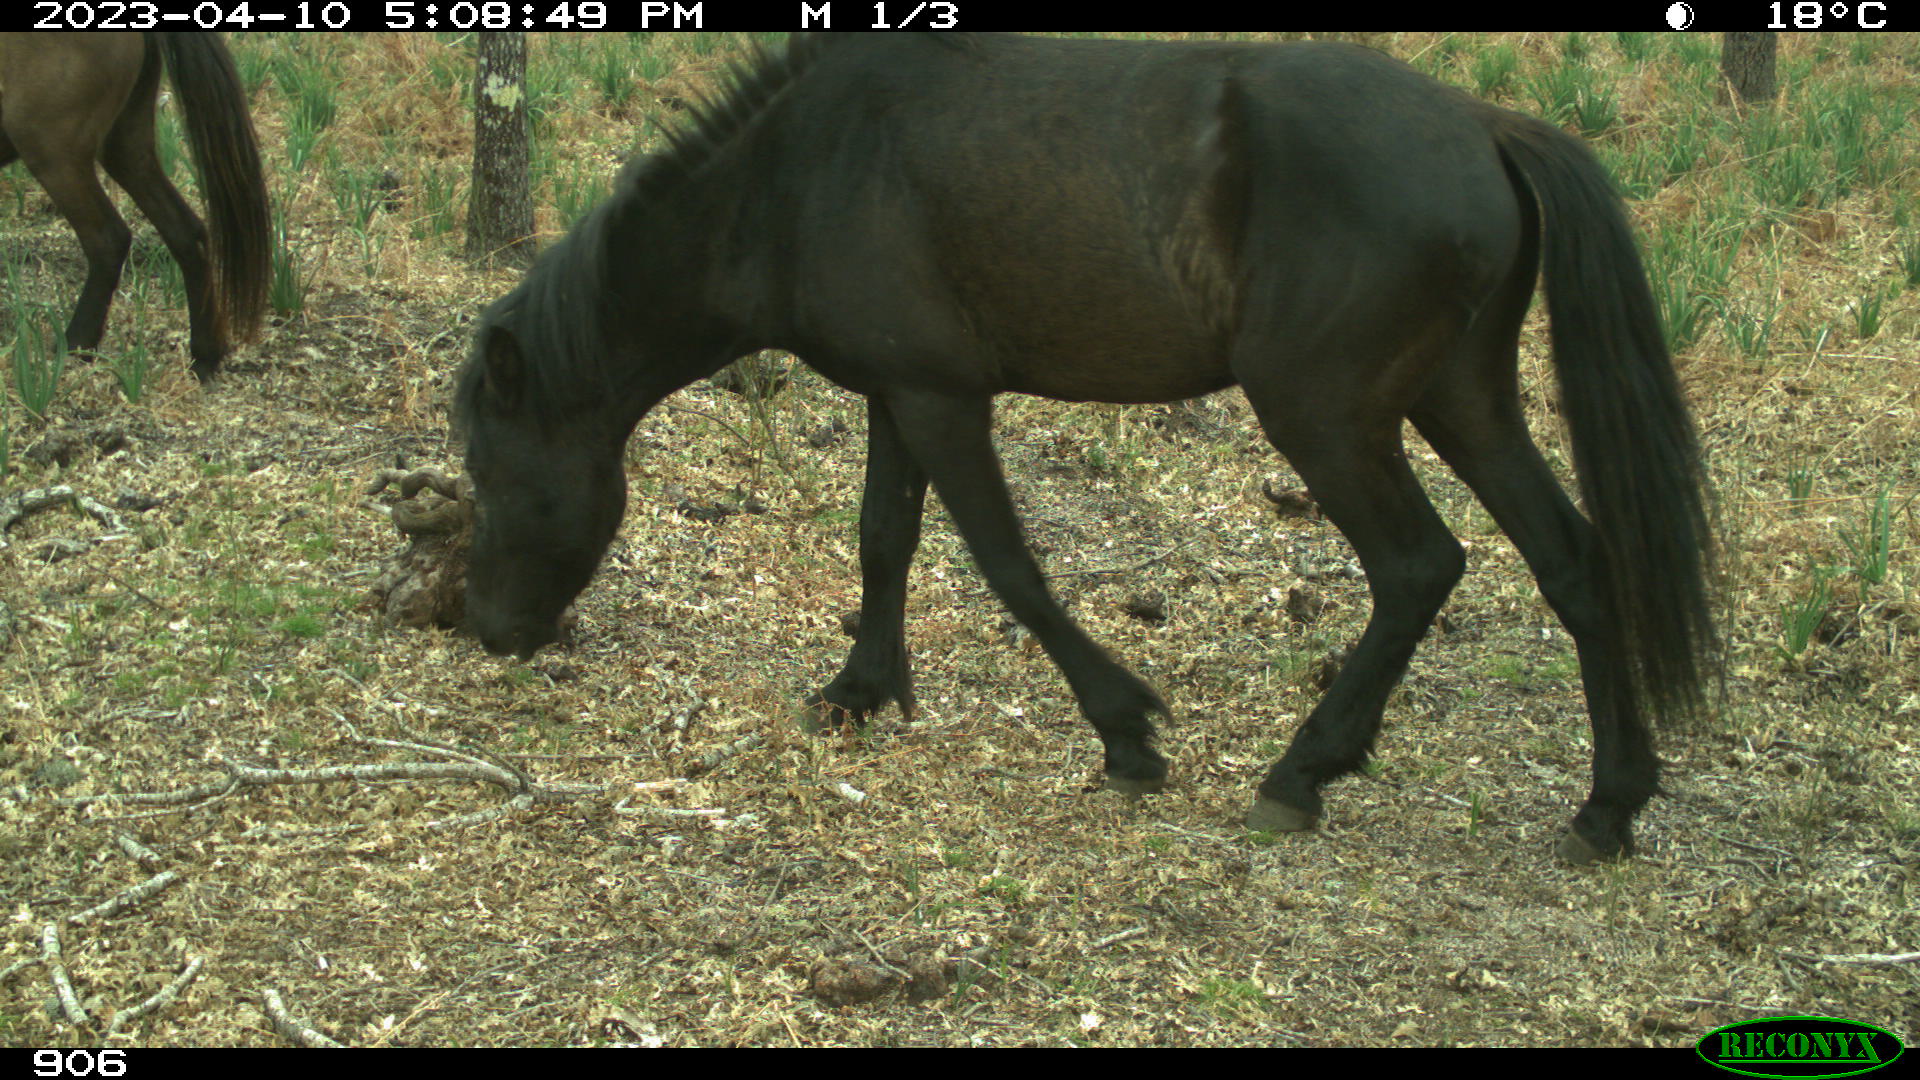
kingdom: Animalia
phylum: Chordata
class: Mammalia
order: Perissodactyla
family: Equidae
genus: Equus
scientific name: Equus caballus
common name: Horse
